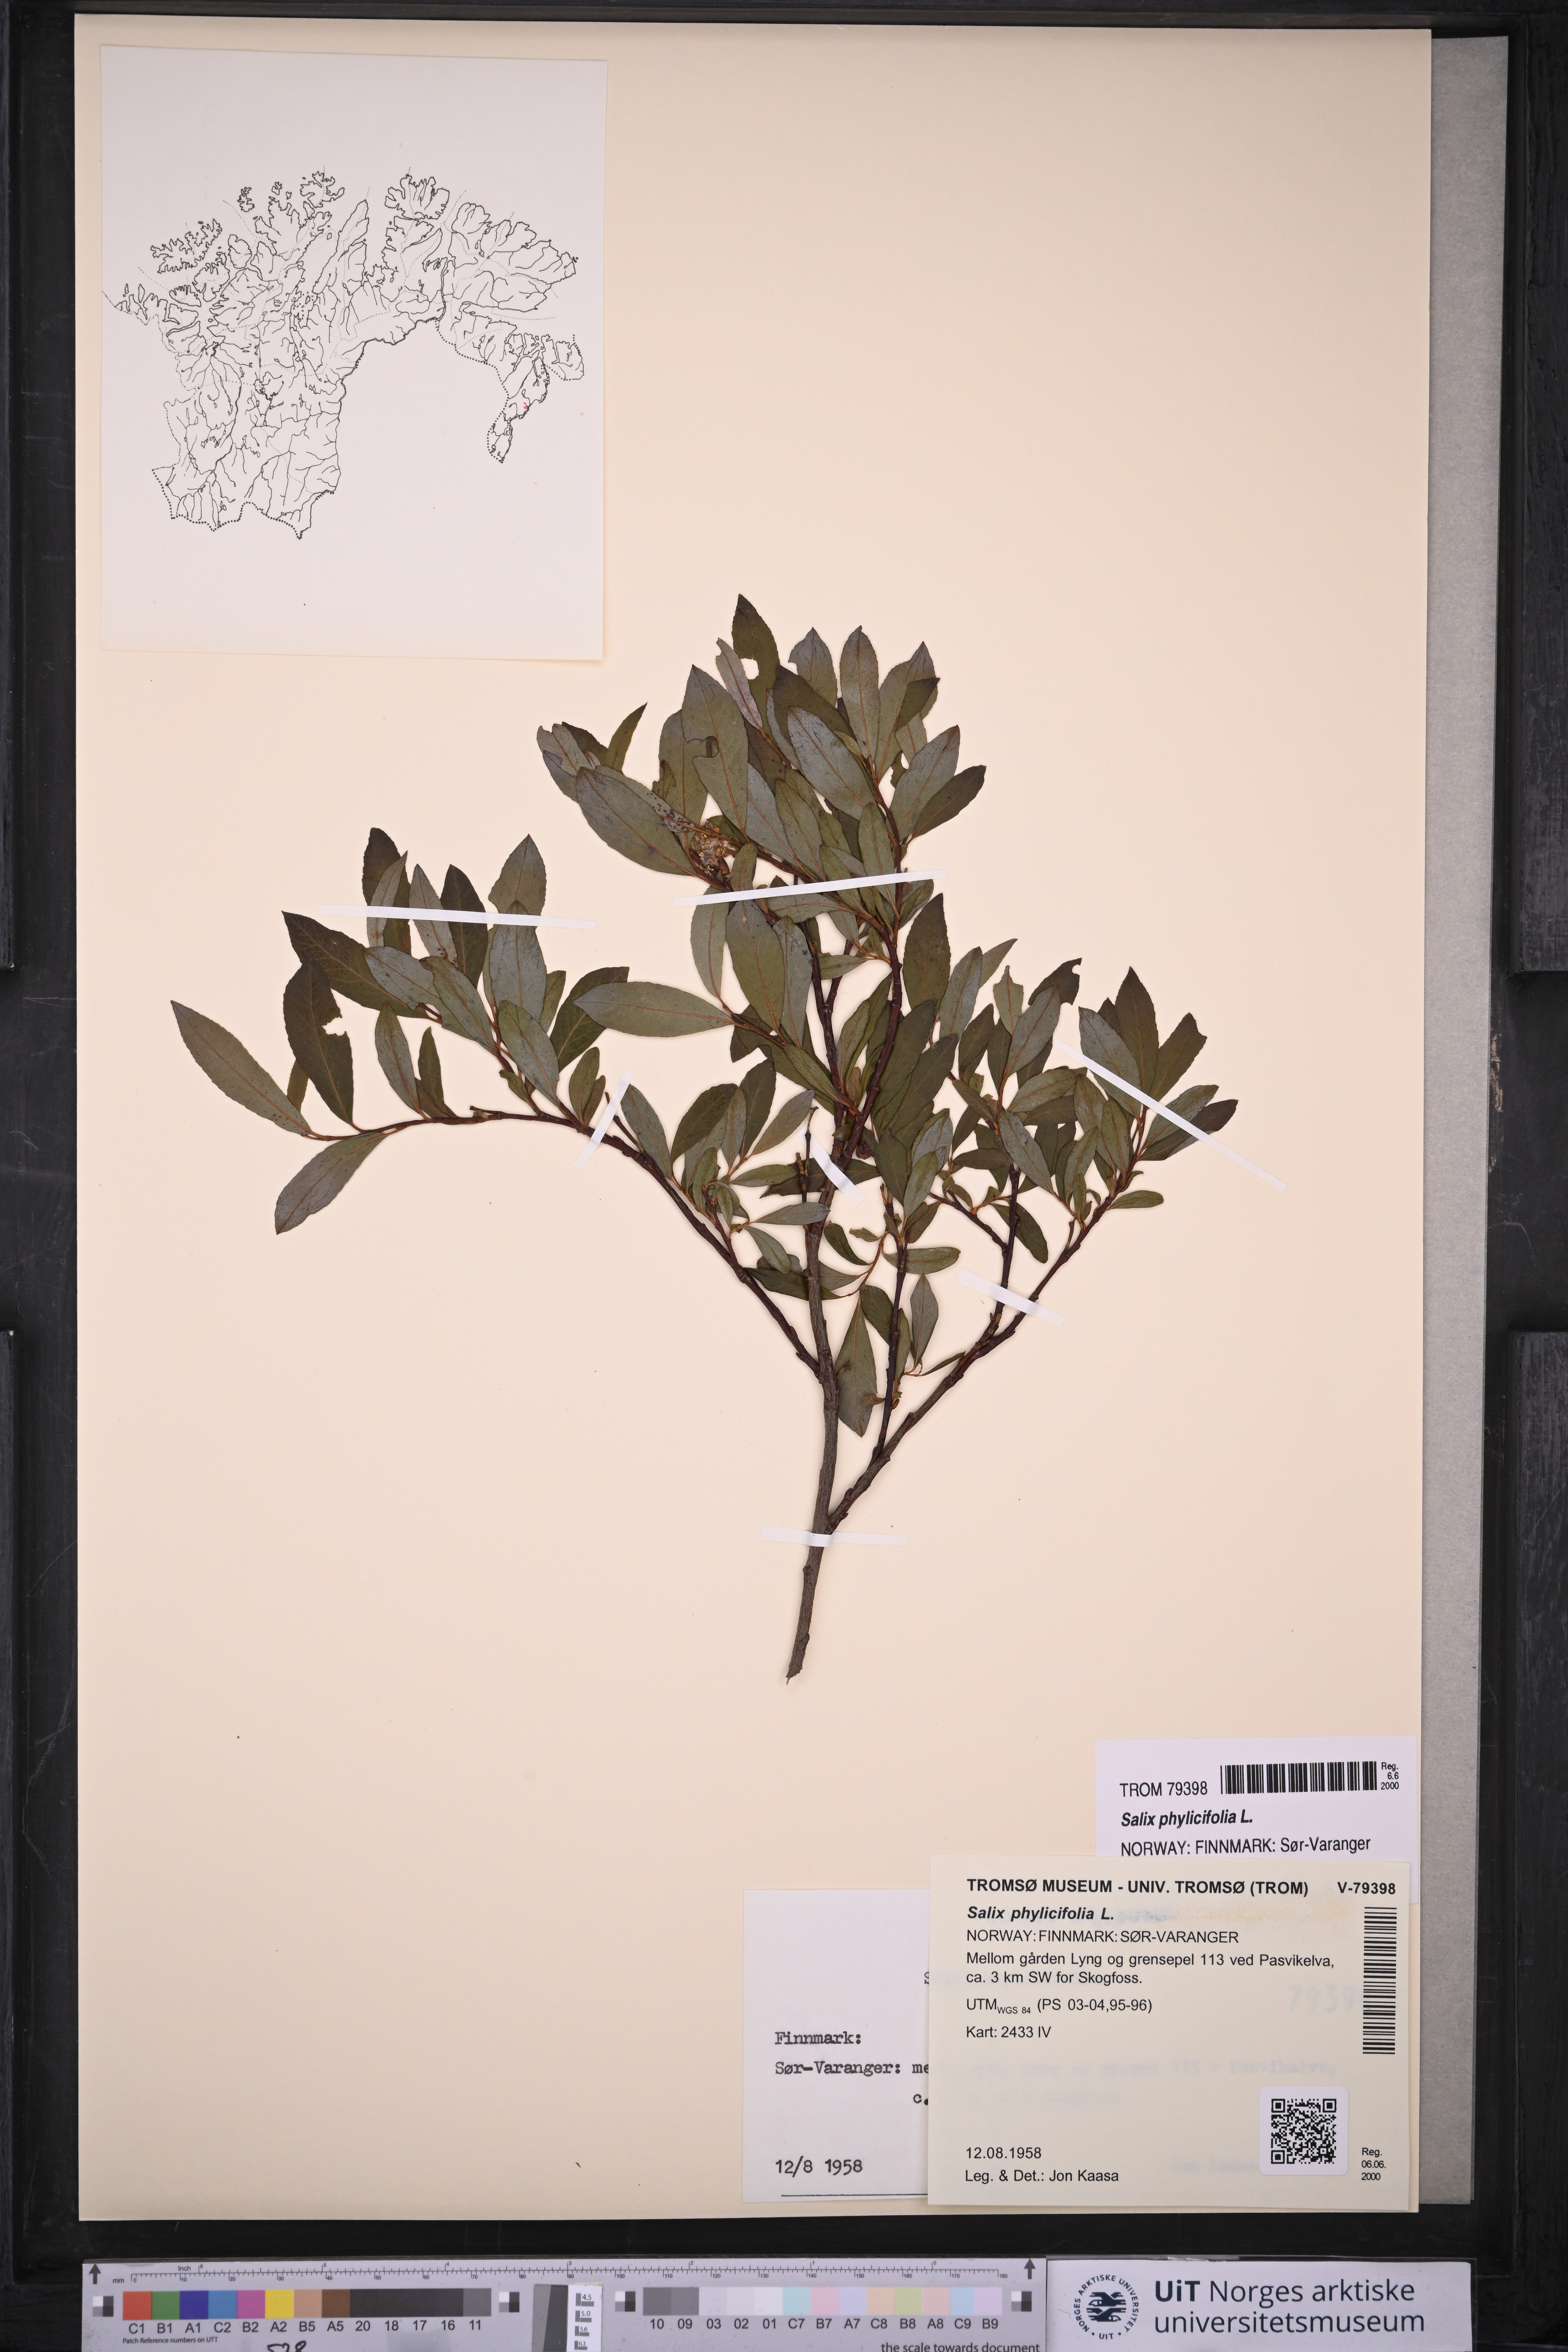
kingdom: Plantae
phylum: Tracheophyta
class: Magnoliopsida
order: Malpighiales
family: Salicaceae
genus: Salix
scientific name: Salix phylicifolia
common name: Tea-leaved willow
